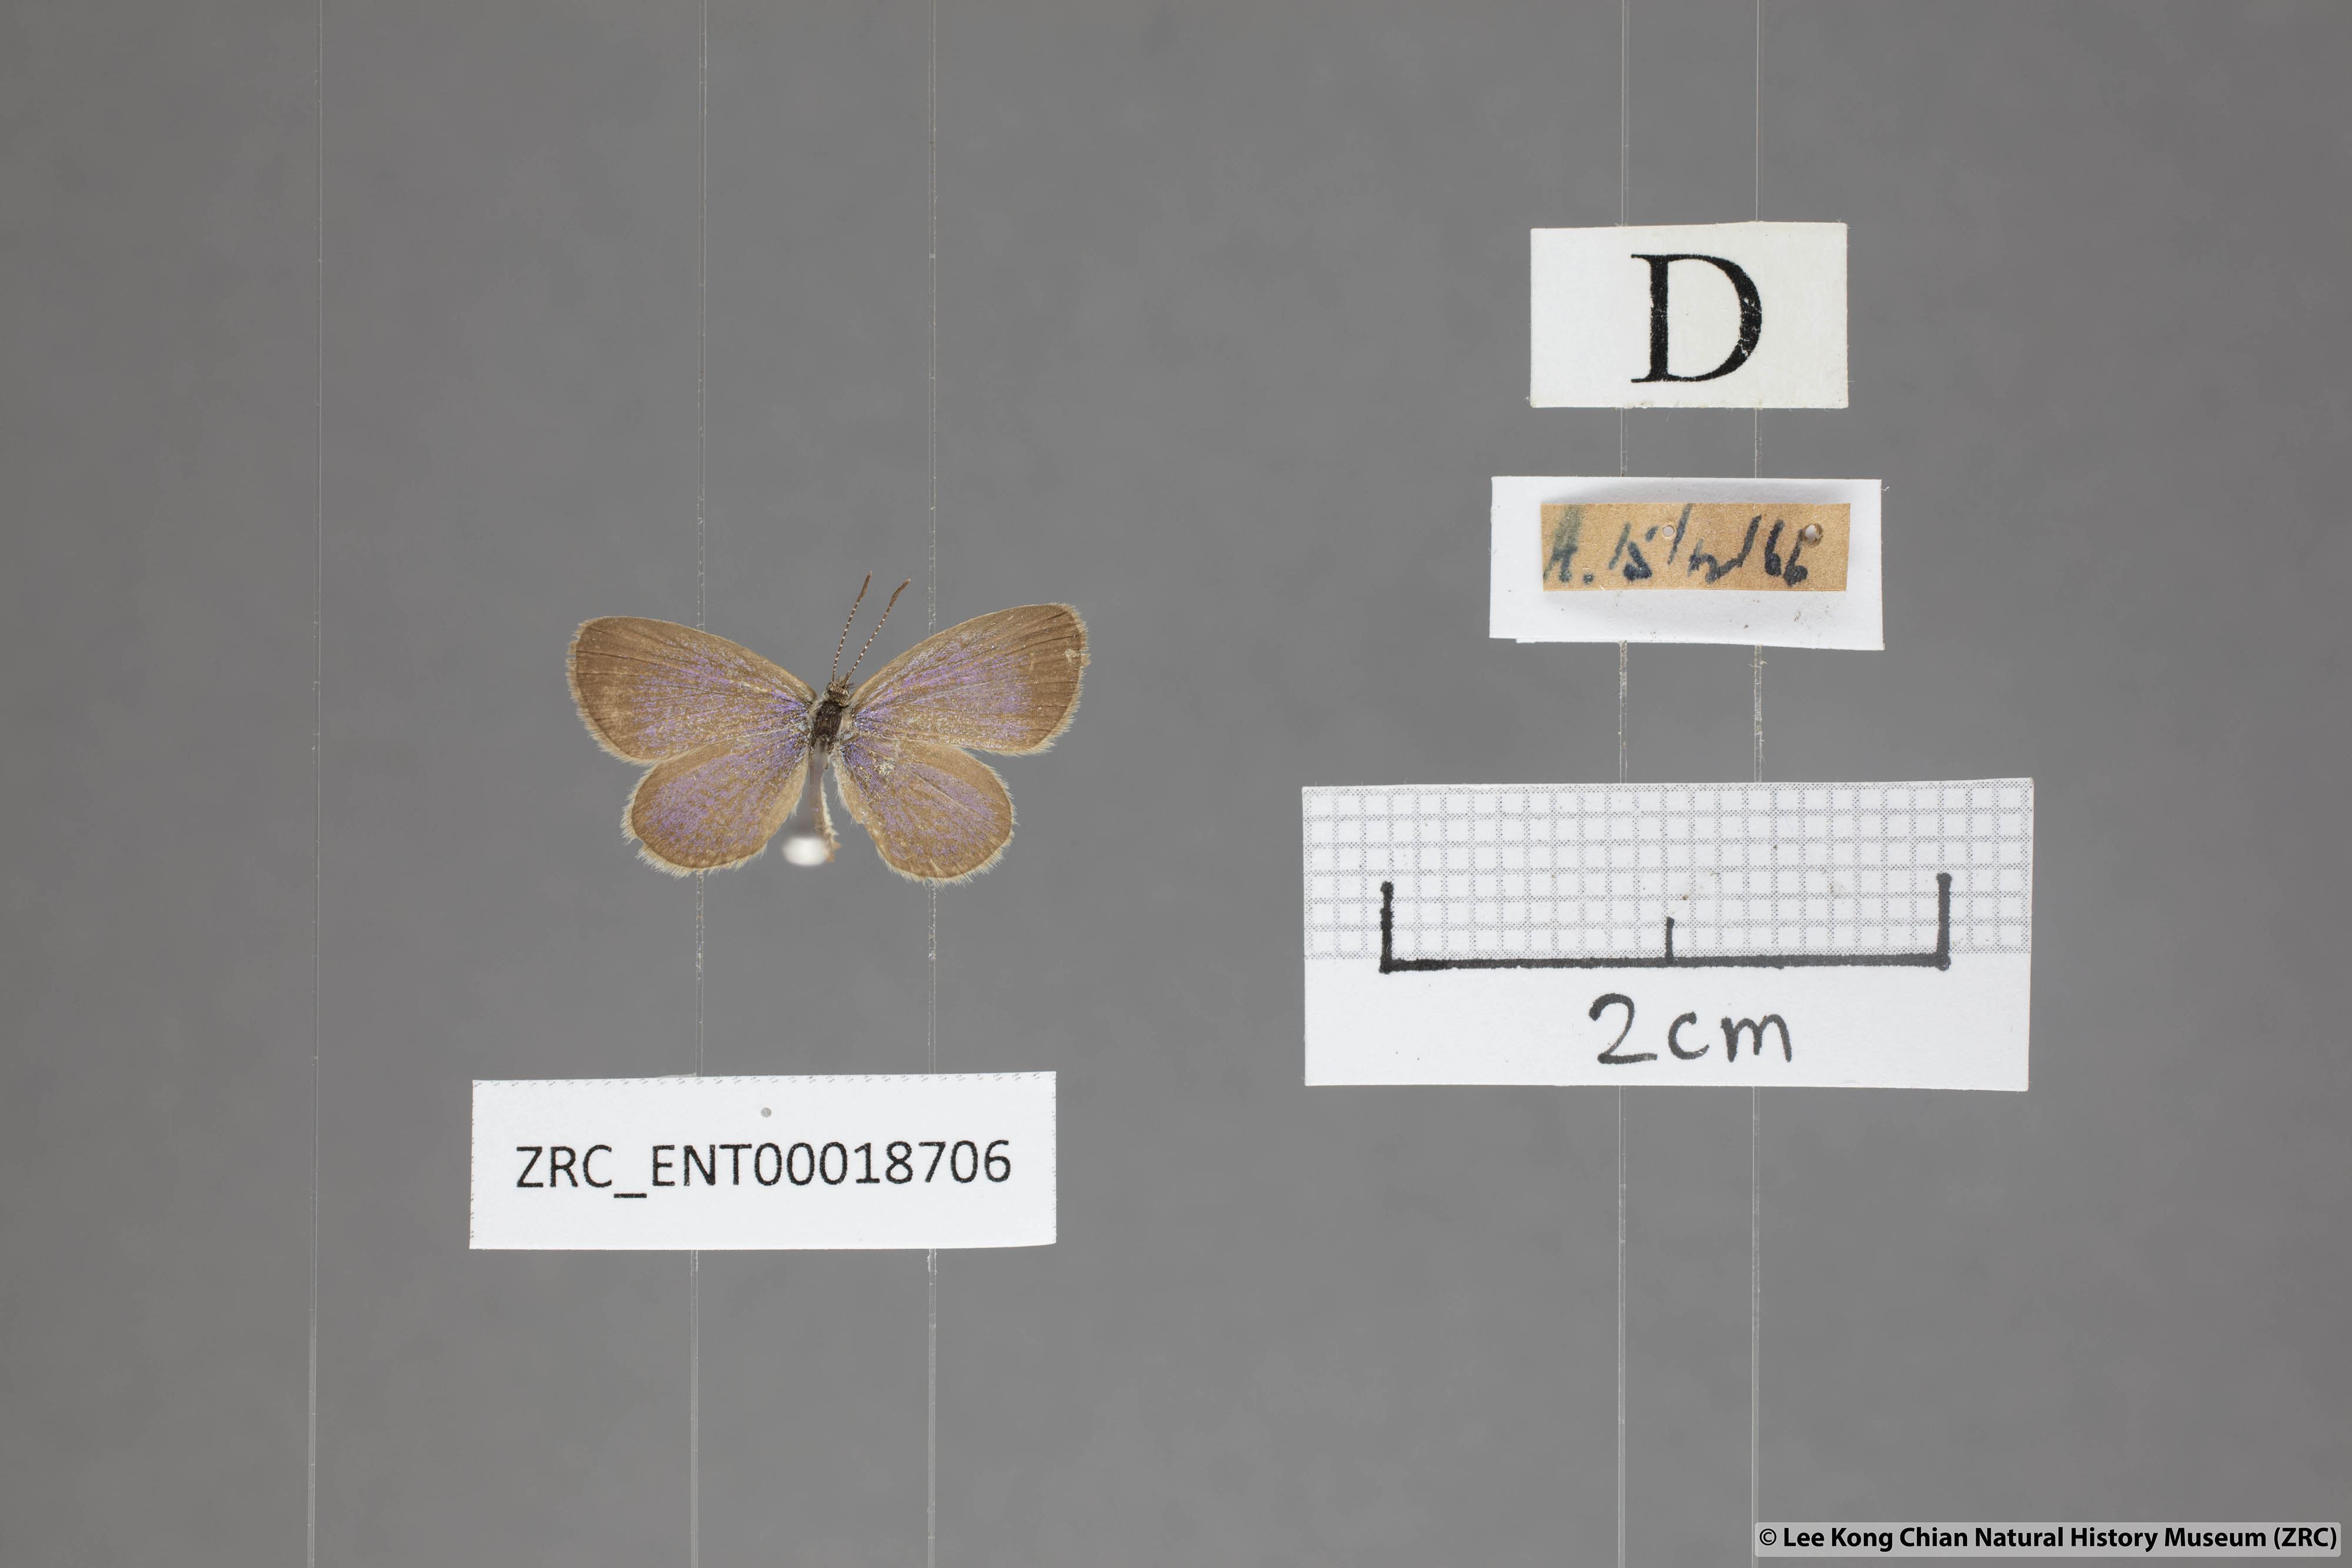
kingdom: Animalia
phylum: Arthropoda
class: Insecta
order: Lepidoptera
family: Lycaenidae
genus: Zizula
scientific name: Zizula hylax
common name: Gaika blue
